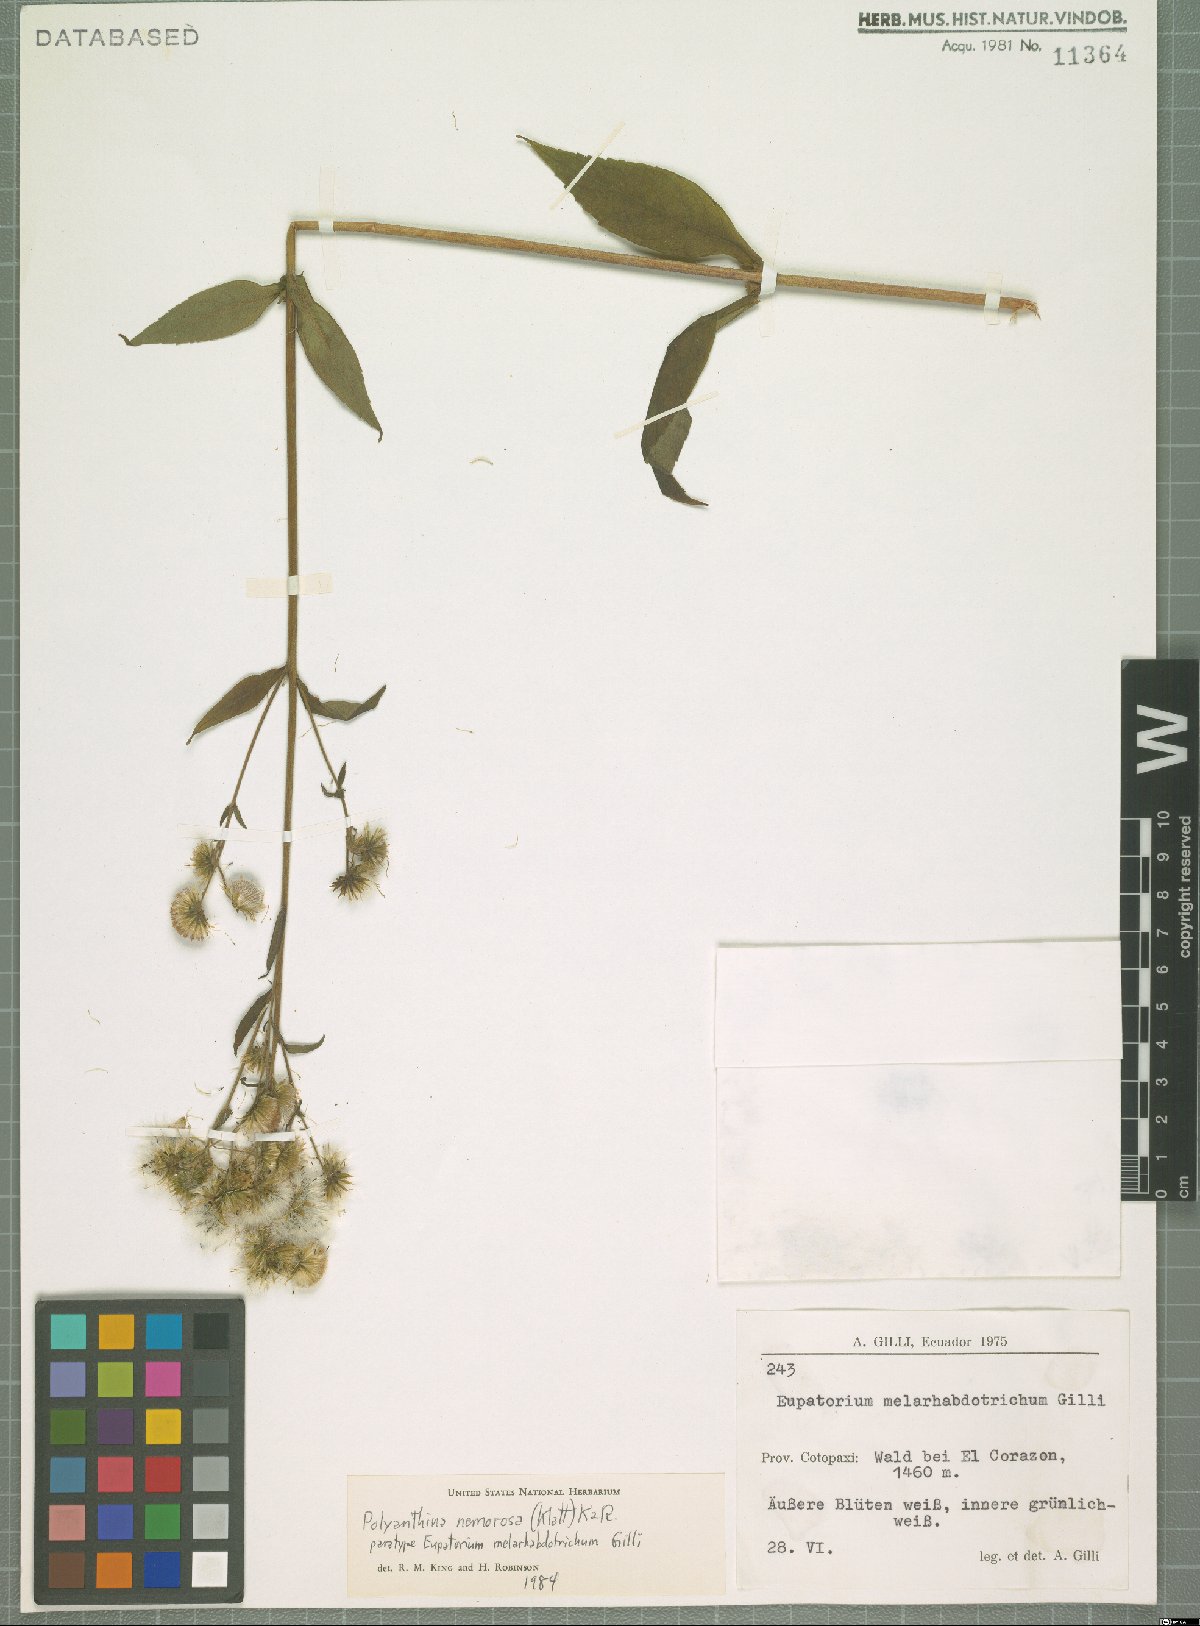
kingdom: Plantae
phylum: Tracheophyta
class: Magnoliopsida
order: Asterales
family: Asteraceae
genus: Polyanthina
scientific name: Polyanthina nemorosa
